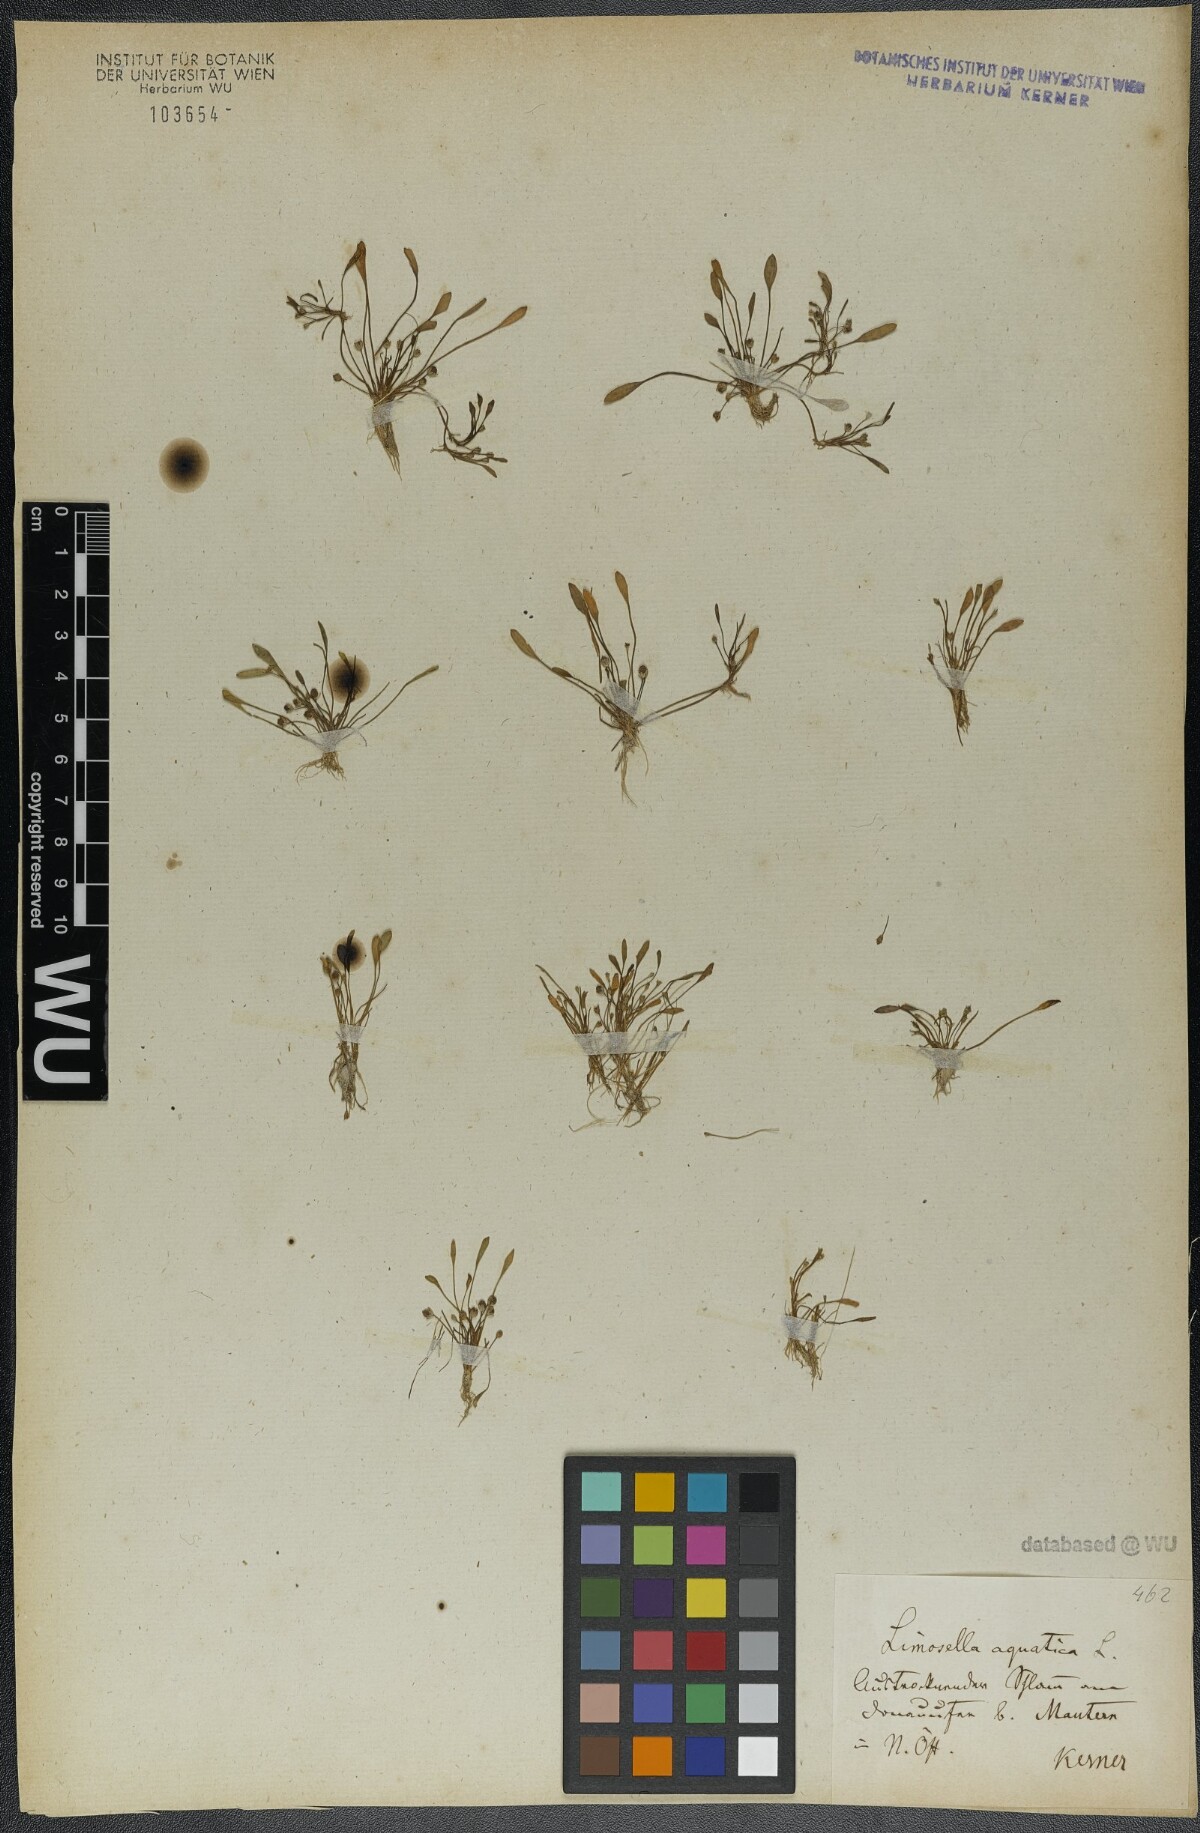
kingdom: Plantae
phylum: Tracheophyta
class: Magnoliopsida
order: Lamiales
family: Scrophulariaceae
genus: Limosella
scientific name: Limosella aquatica
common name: Mudwort
